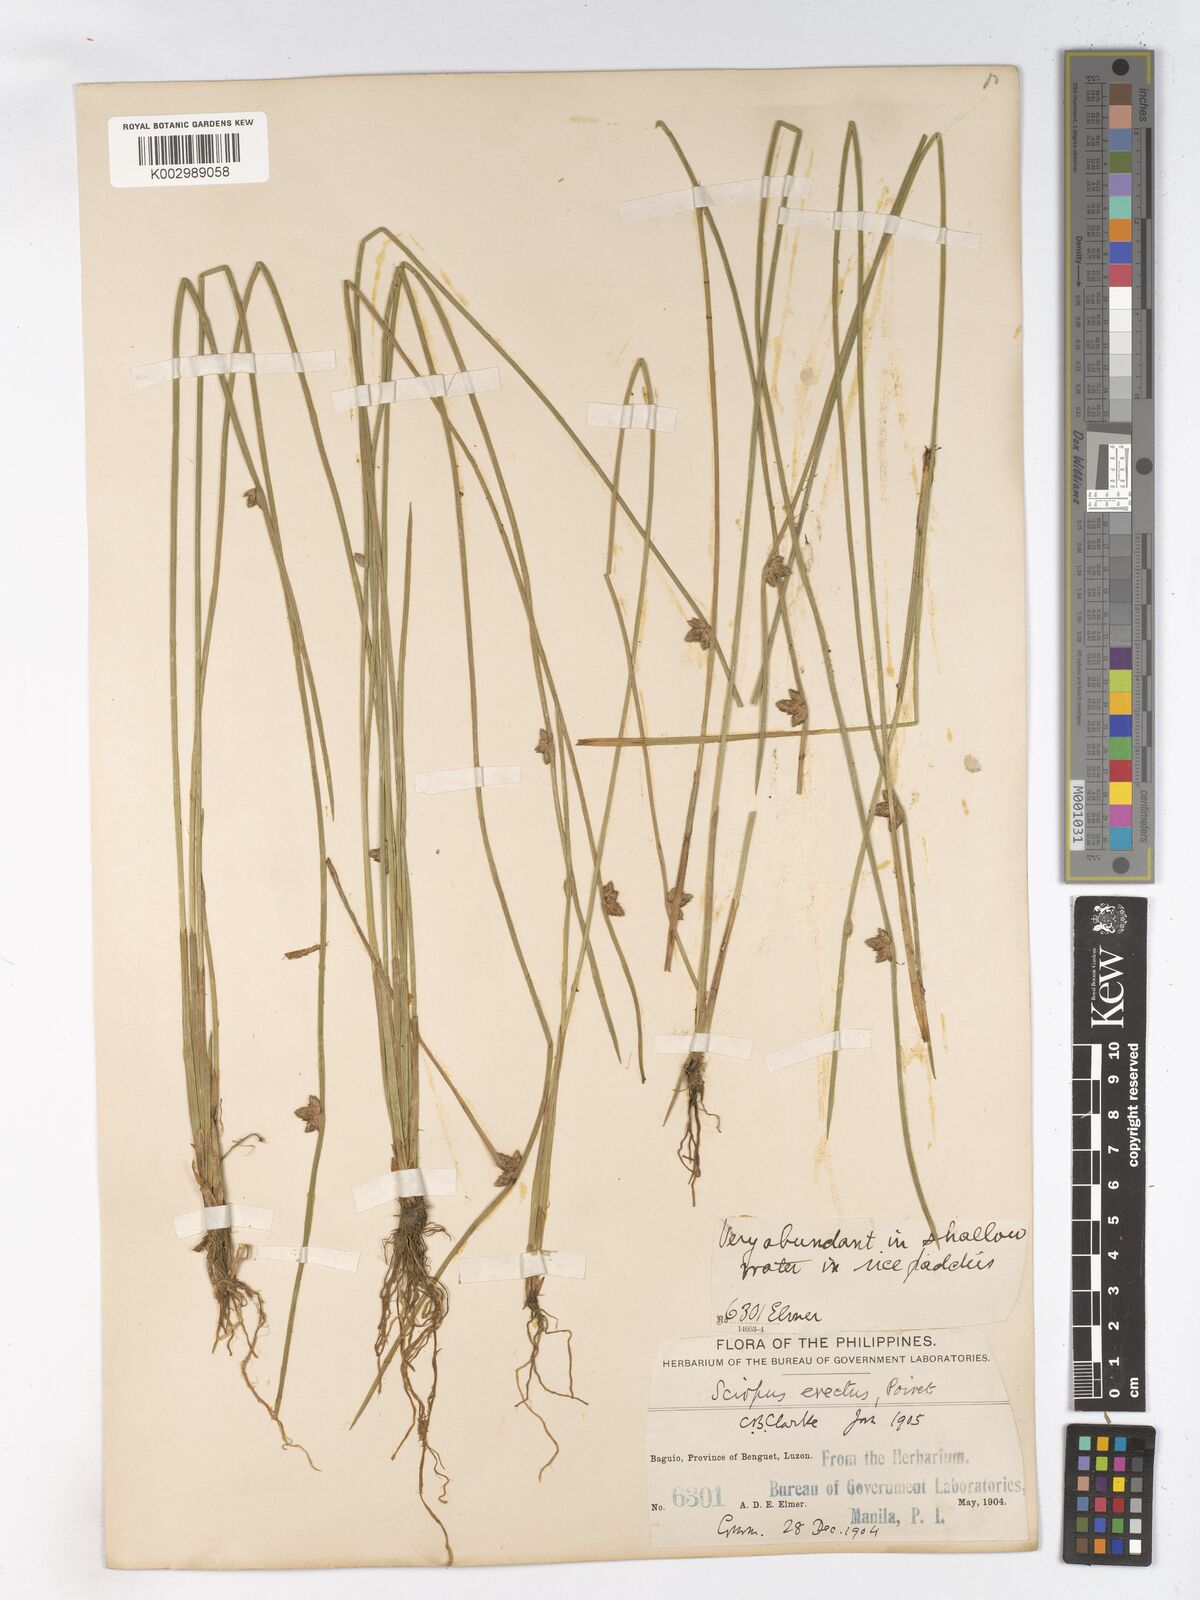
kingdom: Plantae
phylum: Tracheophyta
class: Liliopsida
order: Poales
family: Cyperaceae
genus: Schoenoplectiella
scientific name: Schoenoplectiella juncoides
